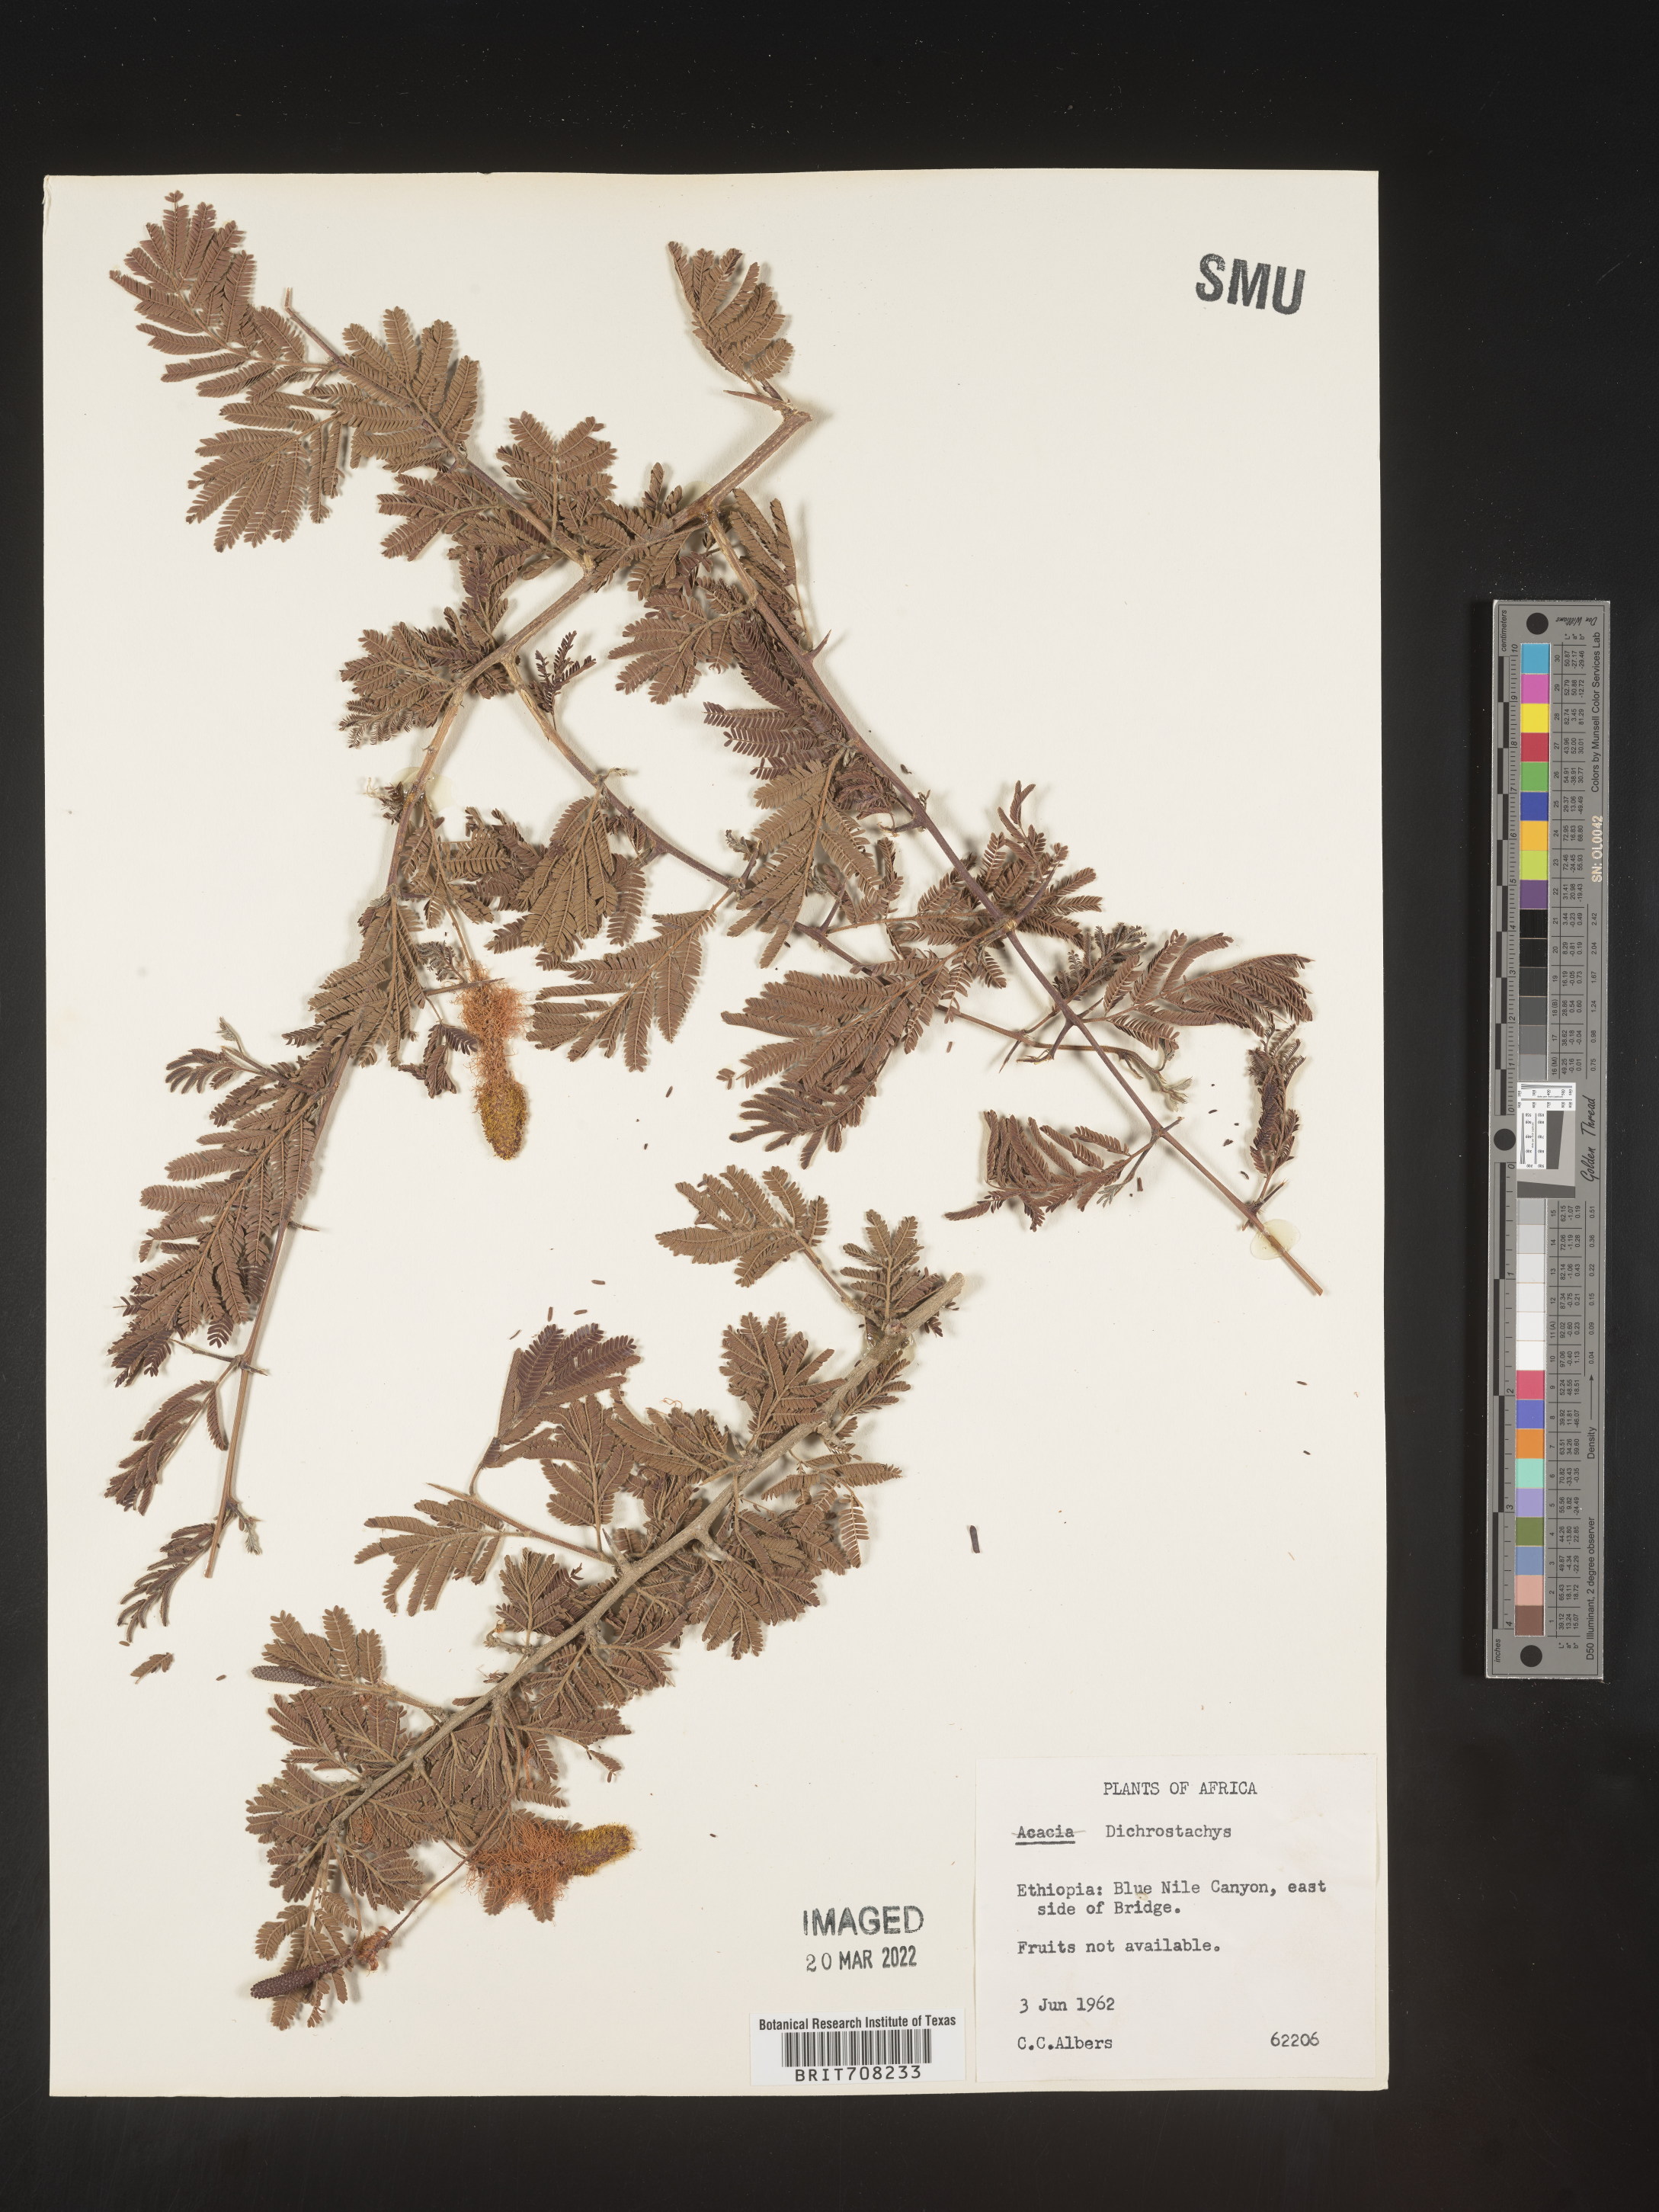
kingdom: Plantae
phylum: Tracheophyta
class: Magnoliopsida
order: Fabales
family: Fabaceae
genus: Dichrostachys
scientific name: Dichrostachys cinerea
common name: Sicklebush
